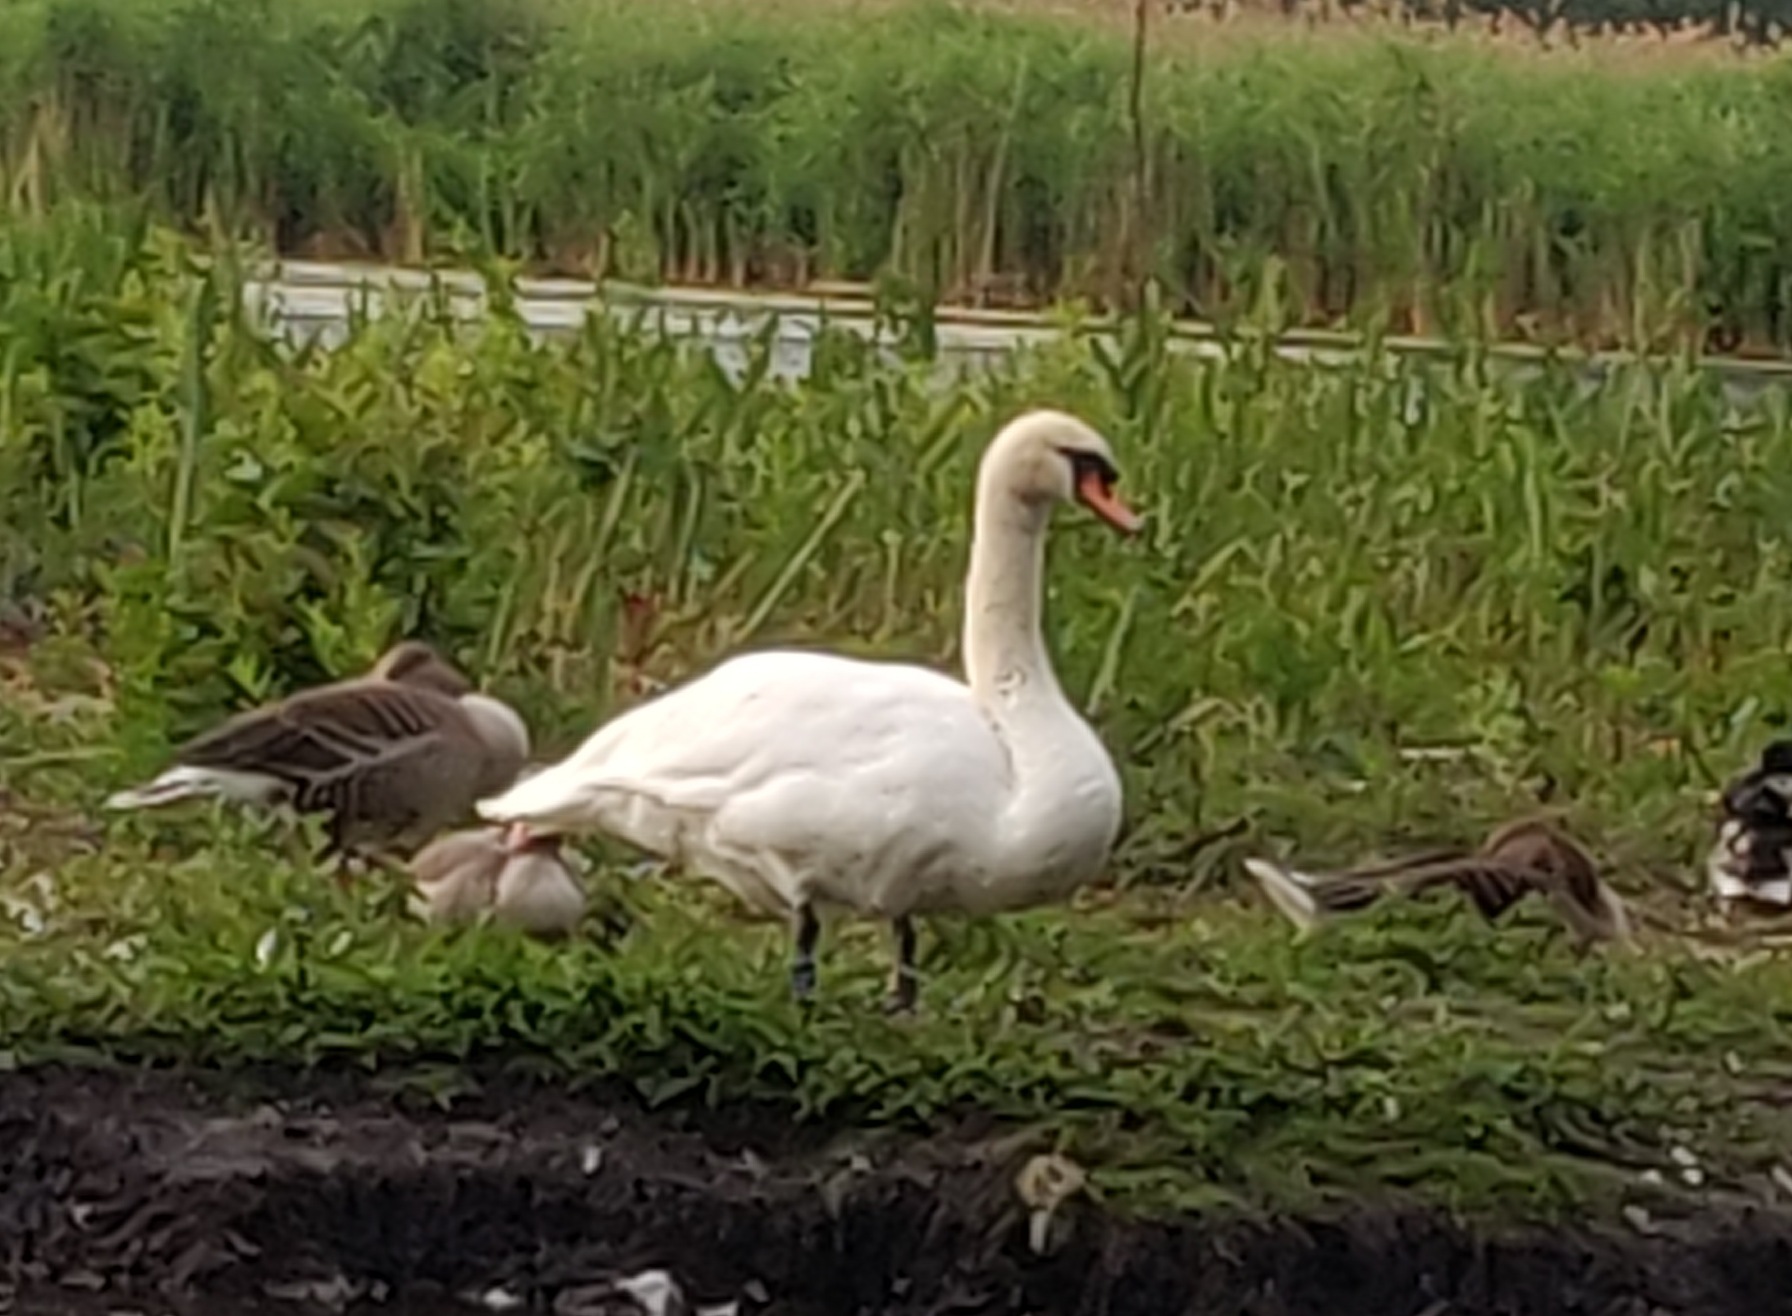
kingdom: Animalia
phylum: Chordata
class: Aves
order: Anseriformes
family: Anatidae
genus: Cygnus
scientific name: Cygnus olor
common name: Knopsvane
